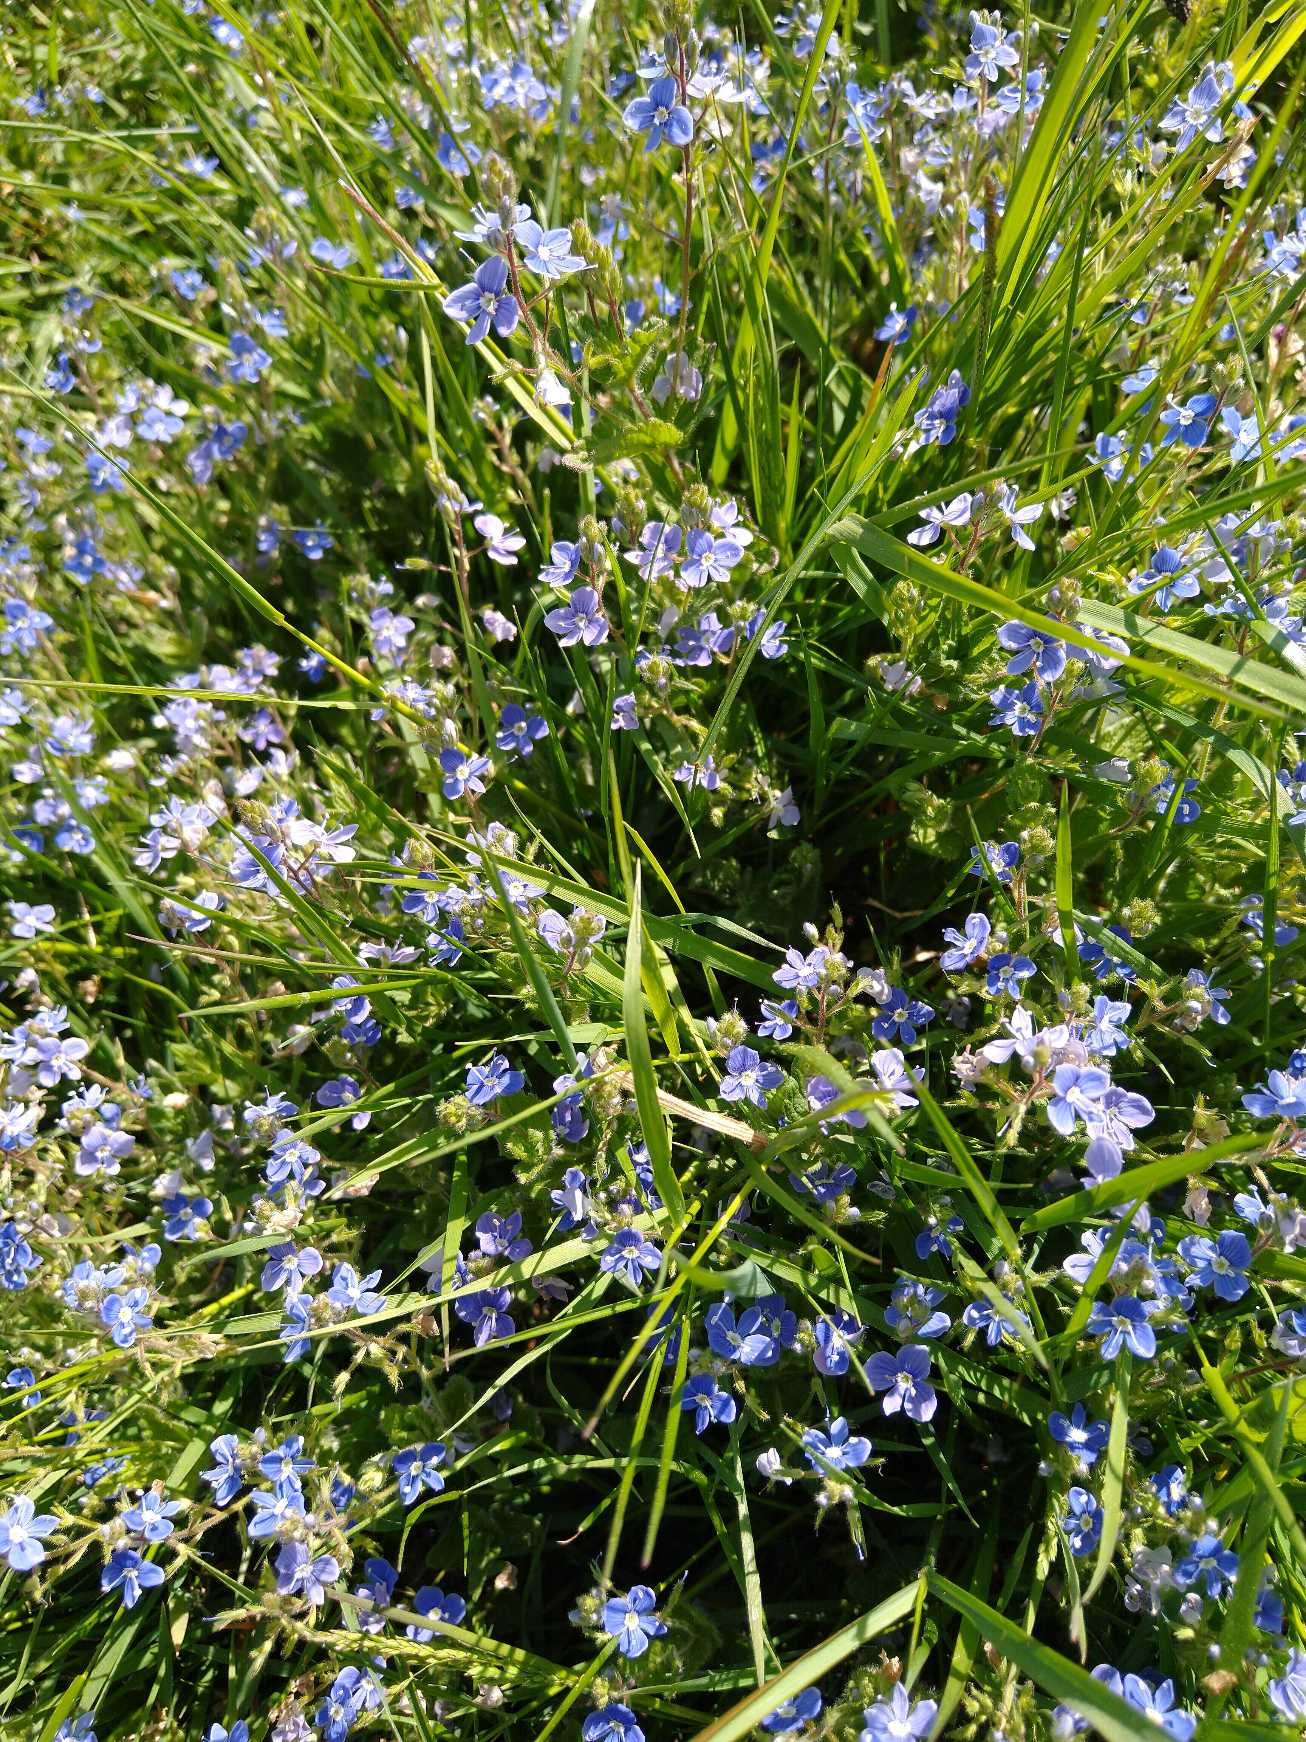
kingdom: Plantae
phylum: Tracheophyta
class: Magnoliopsida
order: Lamiales
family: Plantaginaceae
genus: Veronica
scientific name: Veronica chamaedrys
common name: Tveskægget ærenpris
